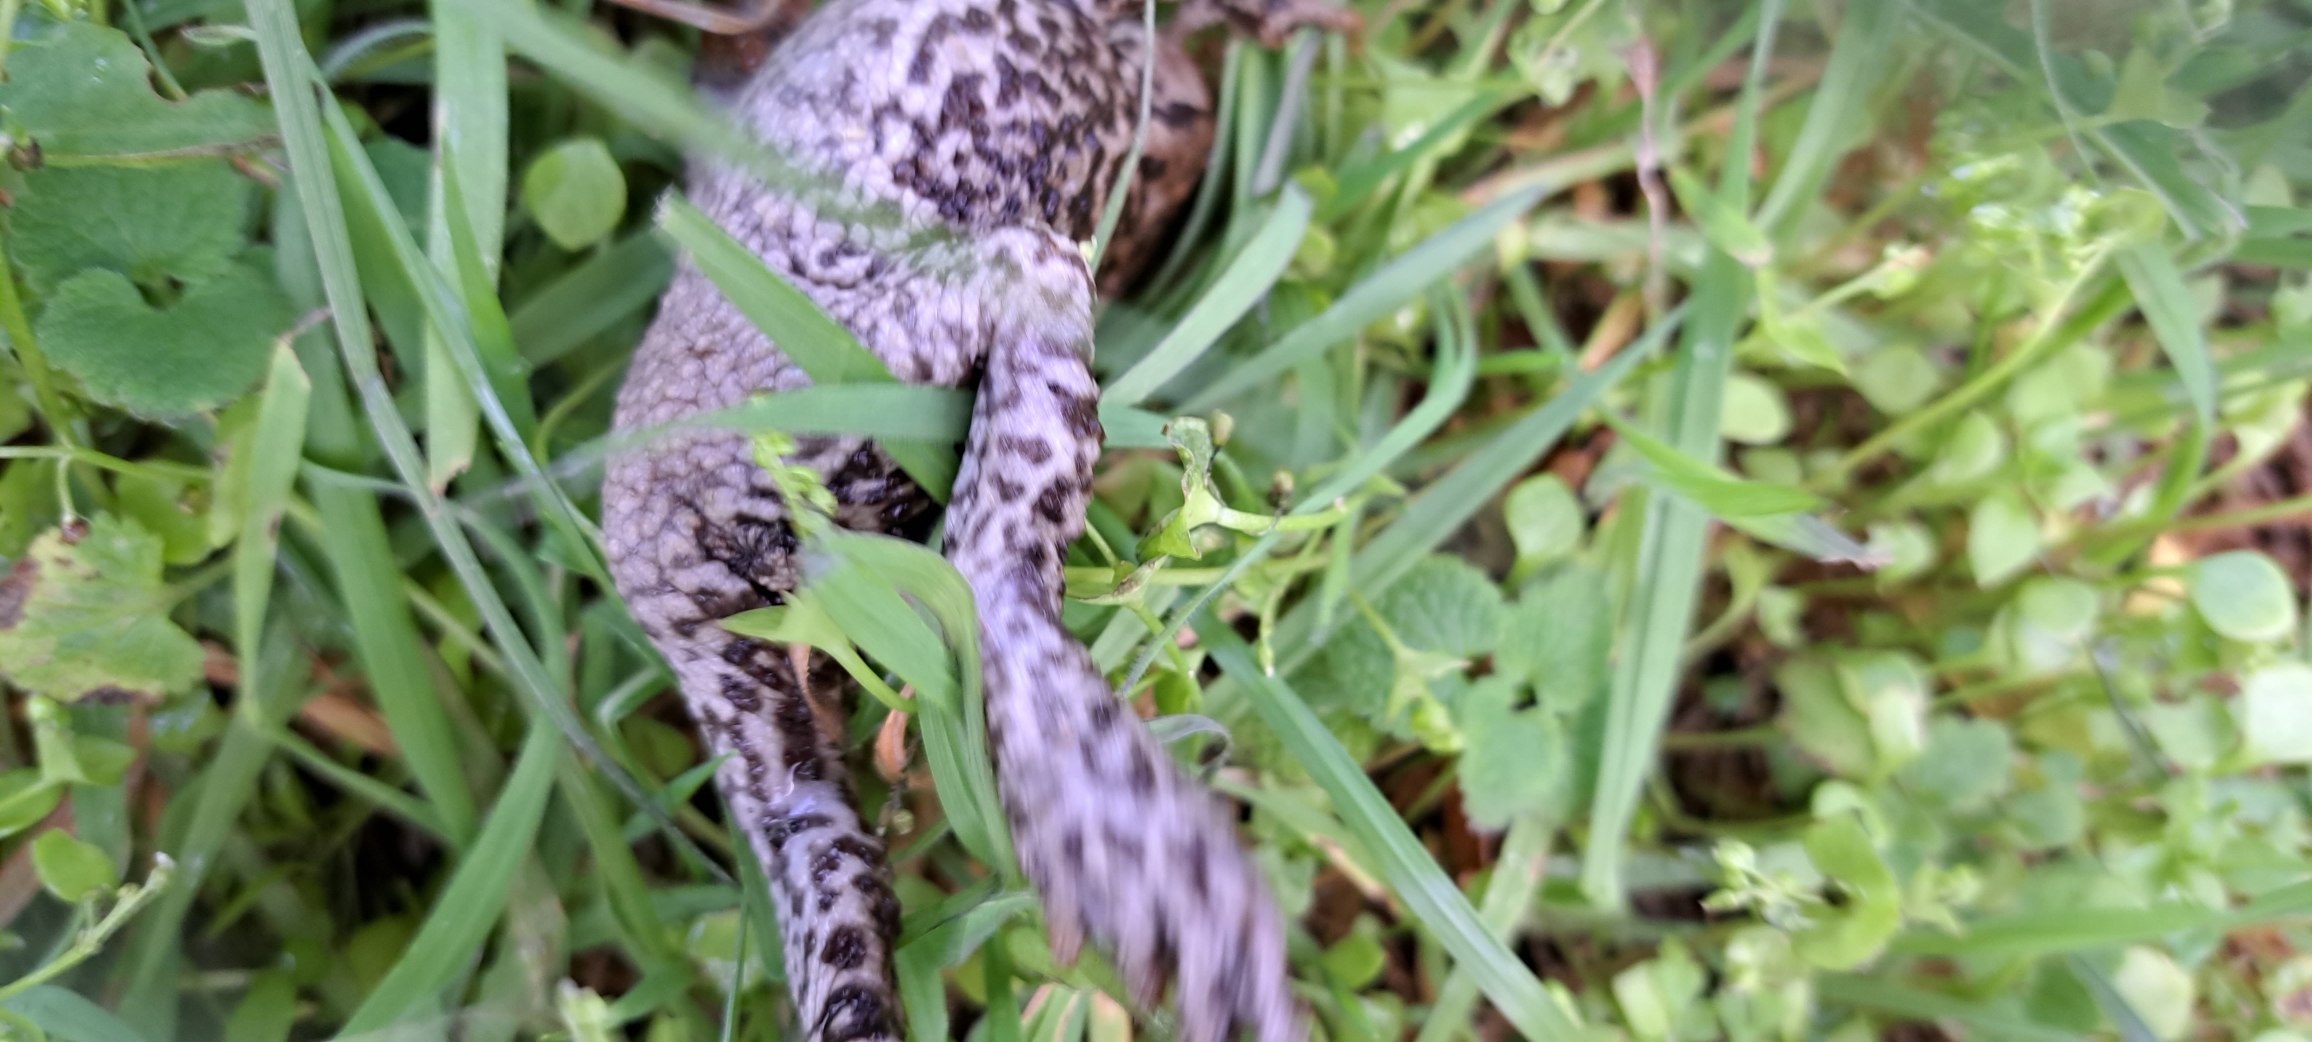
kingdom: Animalia
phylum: Chordata
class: Amphibia
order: Anura
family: Bufonidae
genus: Bufo
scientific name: Bufo bufo
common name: Skrubtudse
